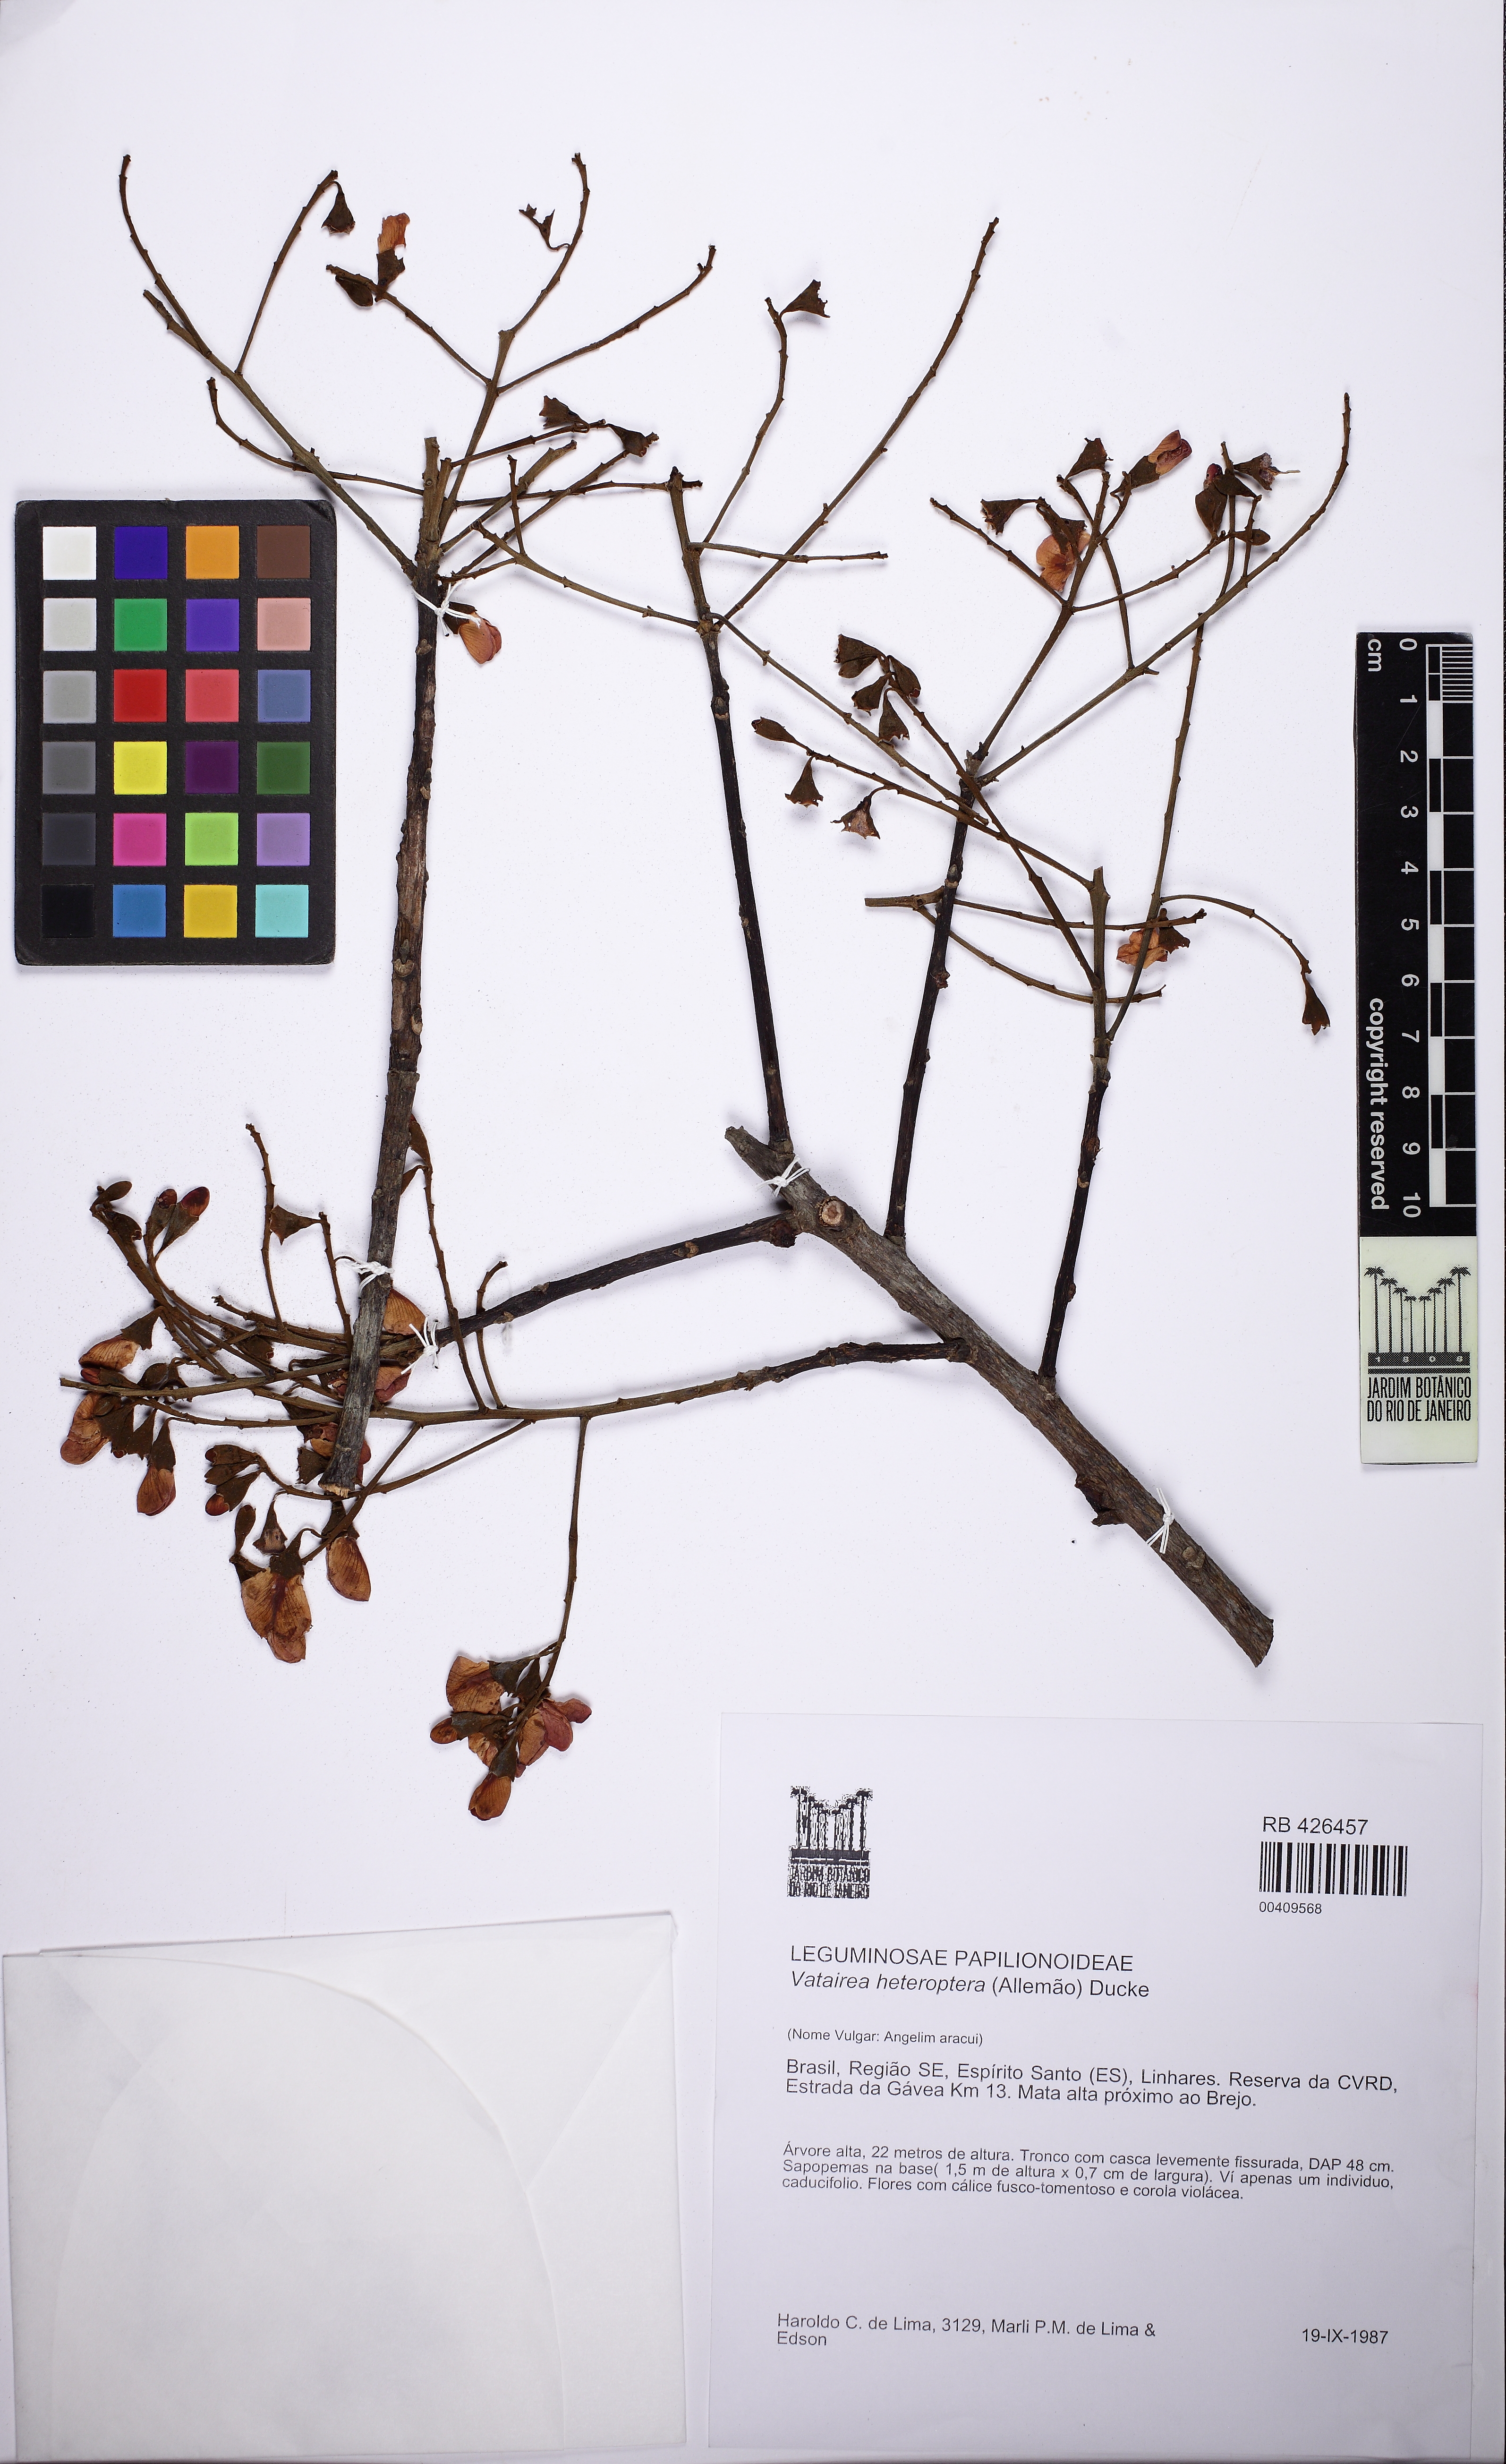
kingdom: Plantae
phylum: Tracheophyta
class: Magnoliopsida
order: Fabales
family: Fabaceae
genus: Vatairea
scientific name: Vatairea heteroptera
